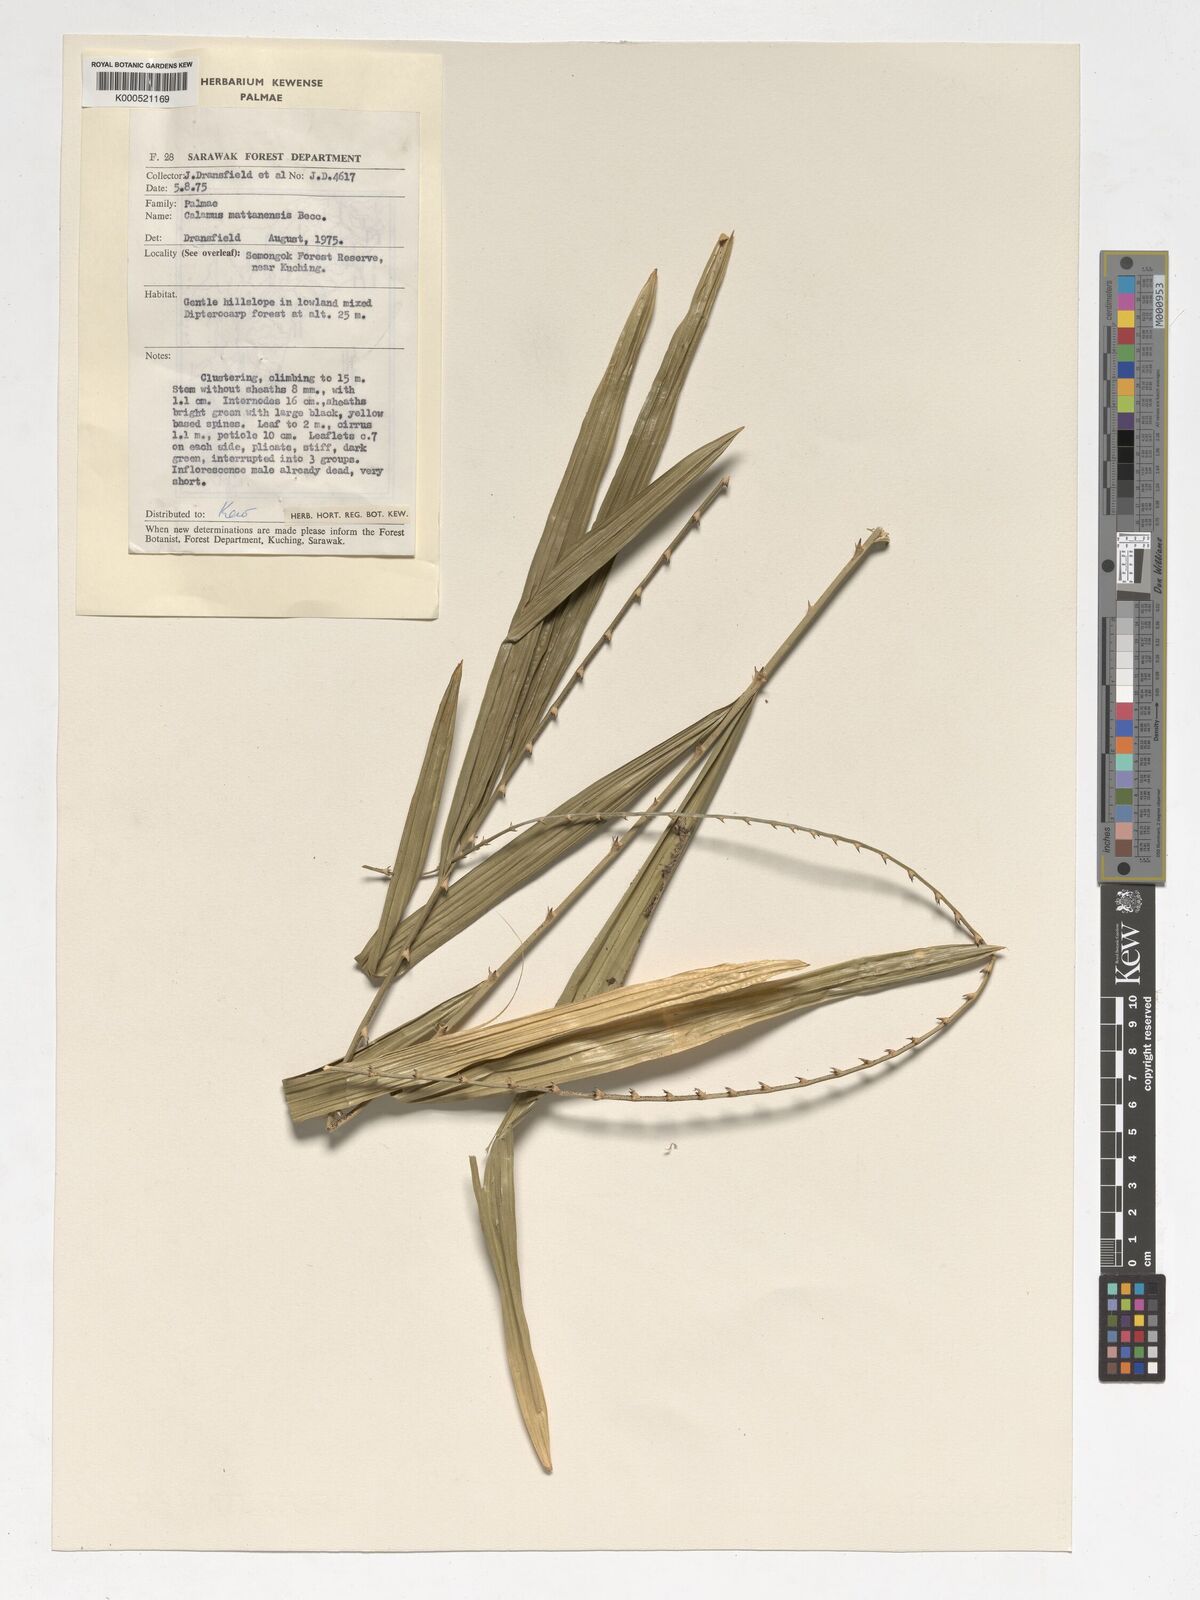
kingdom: Plantae
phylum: Tracheophyta
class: Liliopsida
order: Arecales
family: Arecaceae
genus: Calamus
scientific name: Calamus
